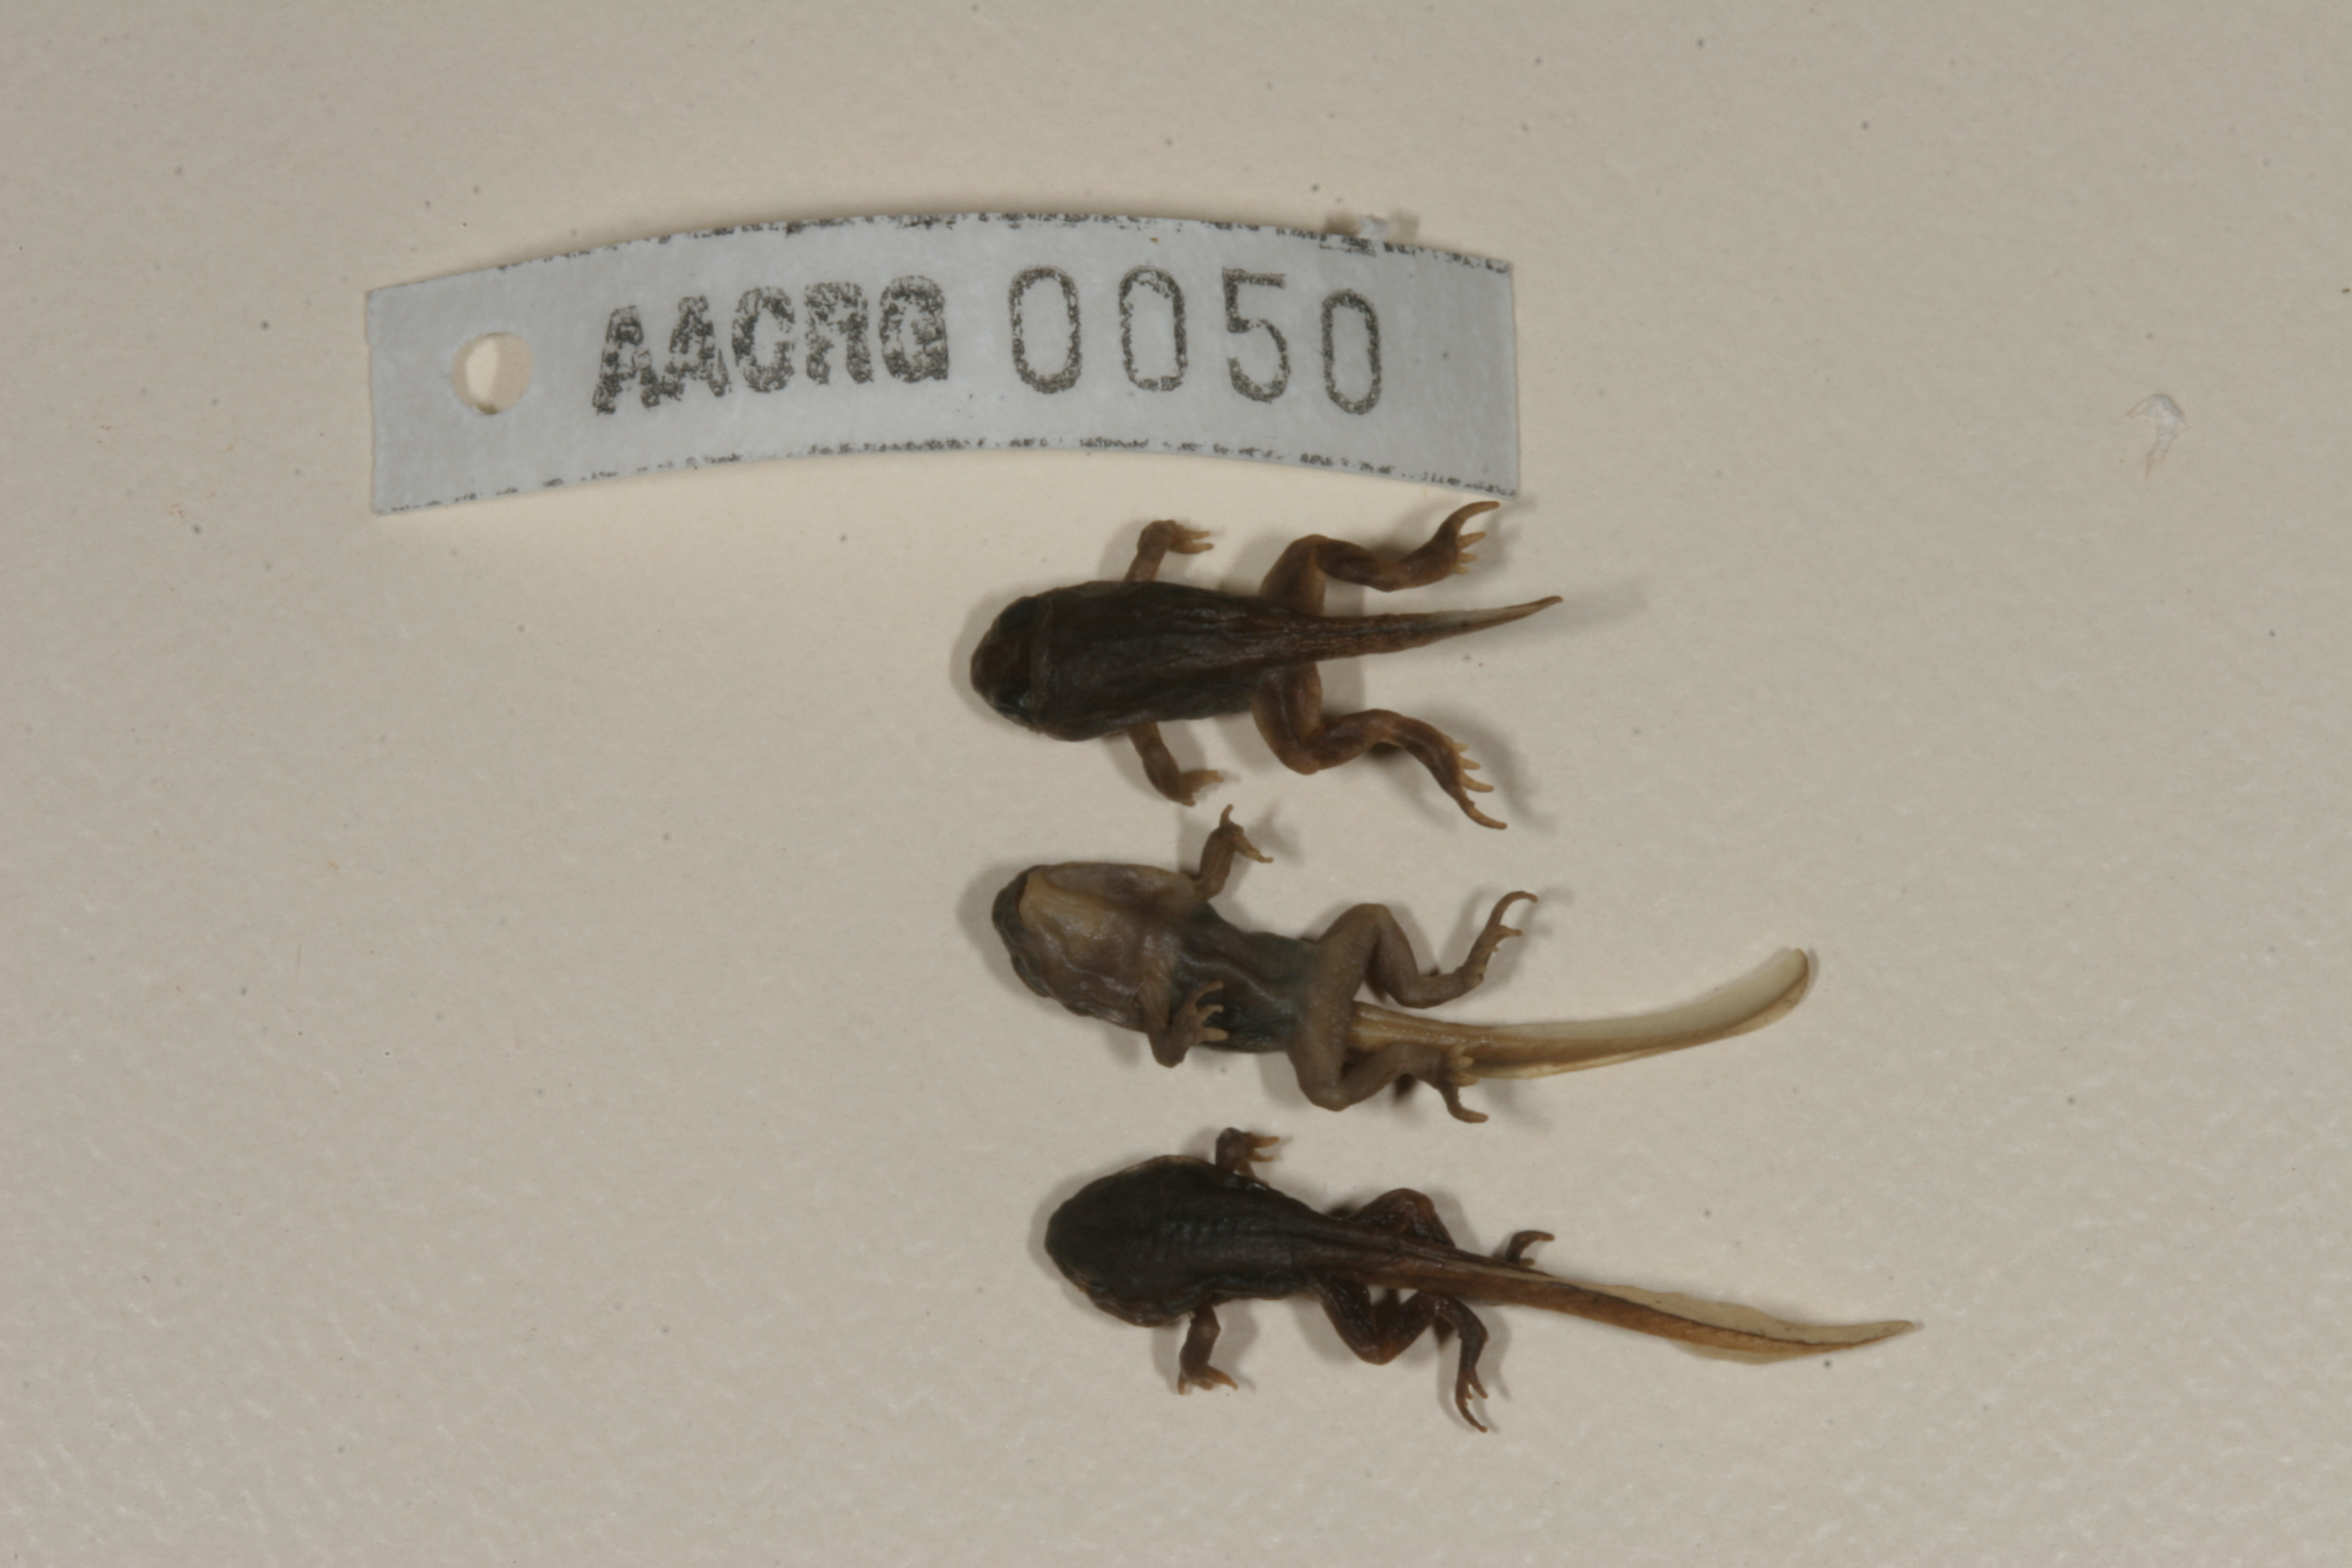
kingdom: Animalia
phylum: Chordata
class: Amphibia
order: Anura
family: Bufonidae
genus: Sclerophrys
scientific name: Sclerophrys gutturalis
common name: African common toad
